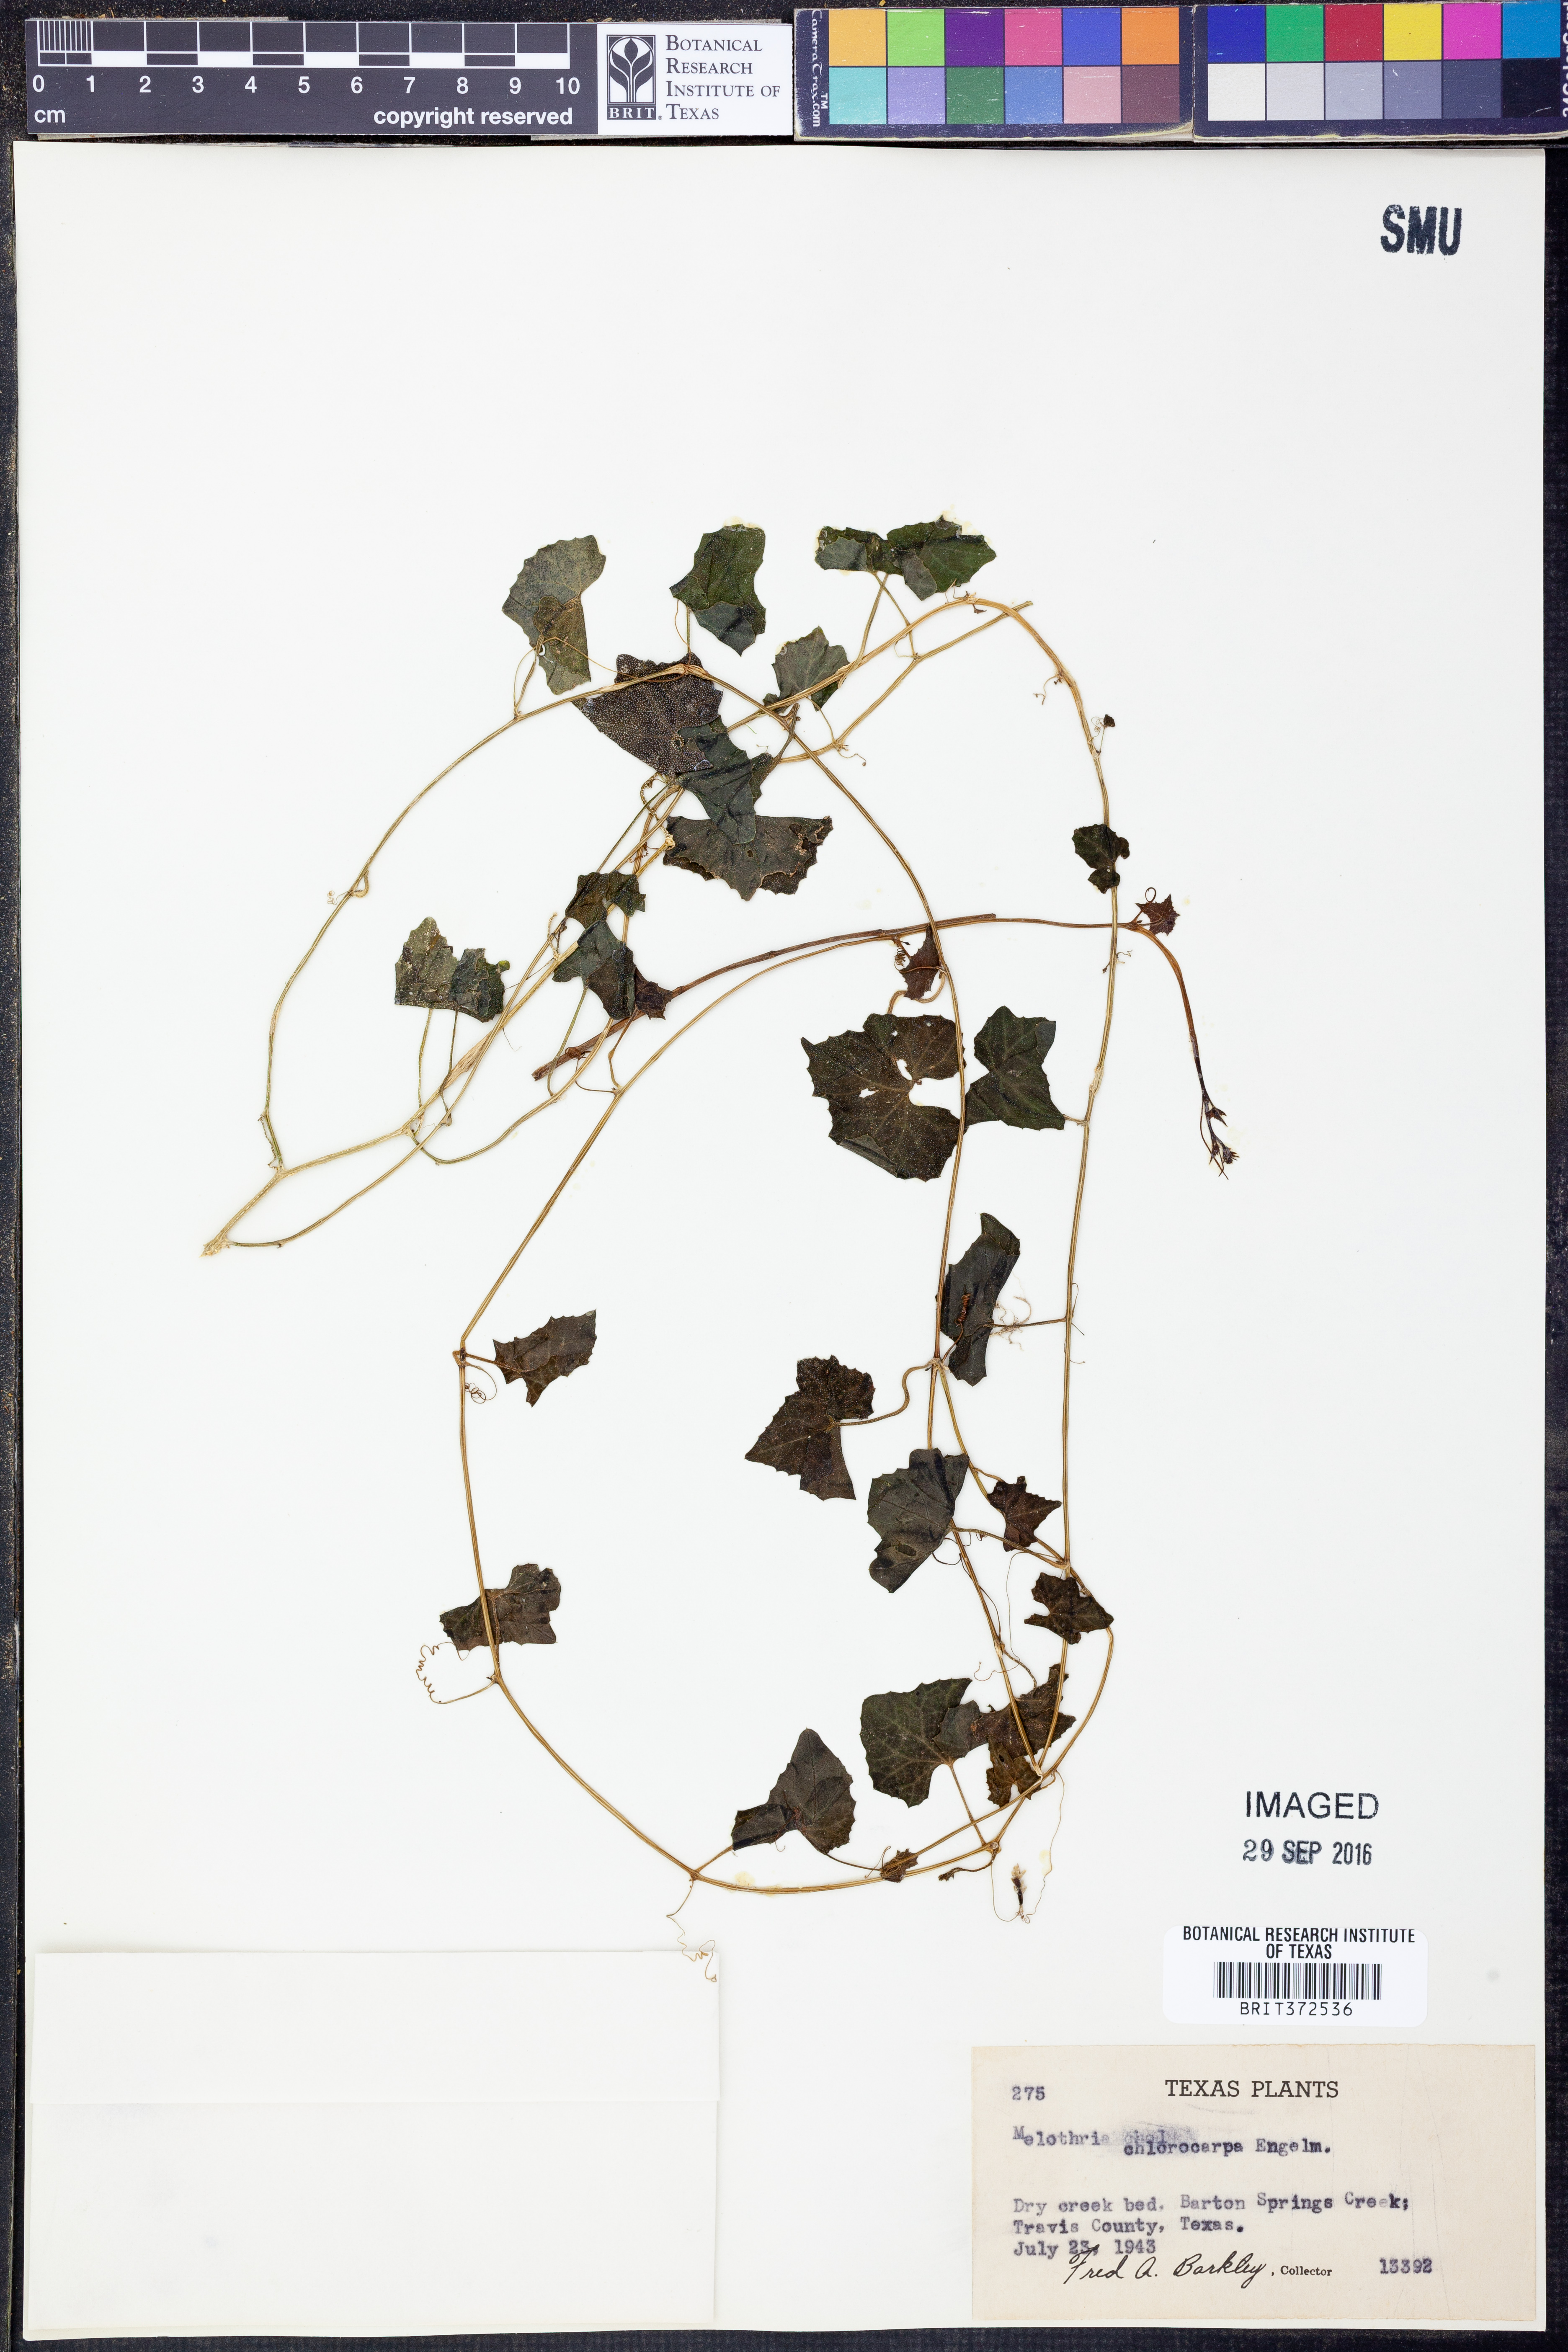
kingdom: Plantae
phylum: Tracheophyta
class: Magnoliopsida
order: Cucurbitales
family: Cucurbitaceae
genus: Melothria
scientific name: Melothria pendula
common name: Creeping-cucumber
